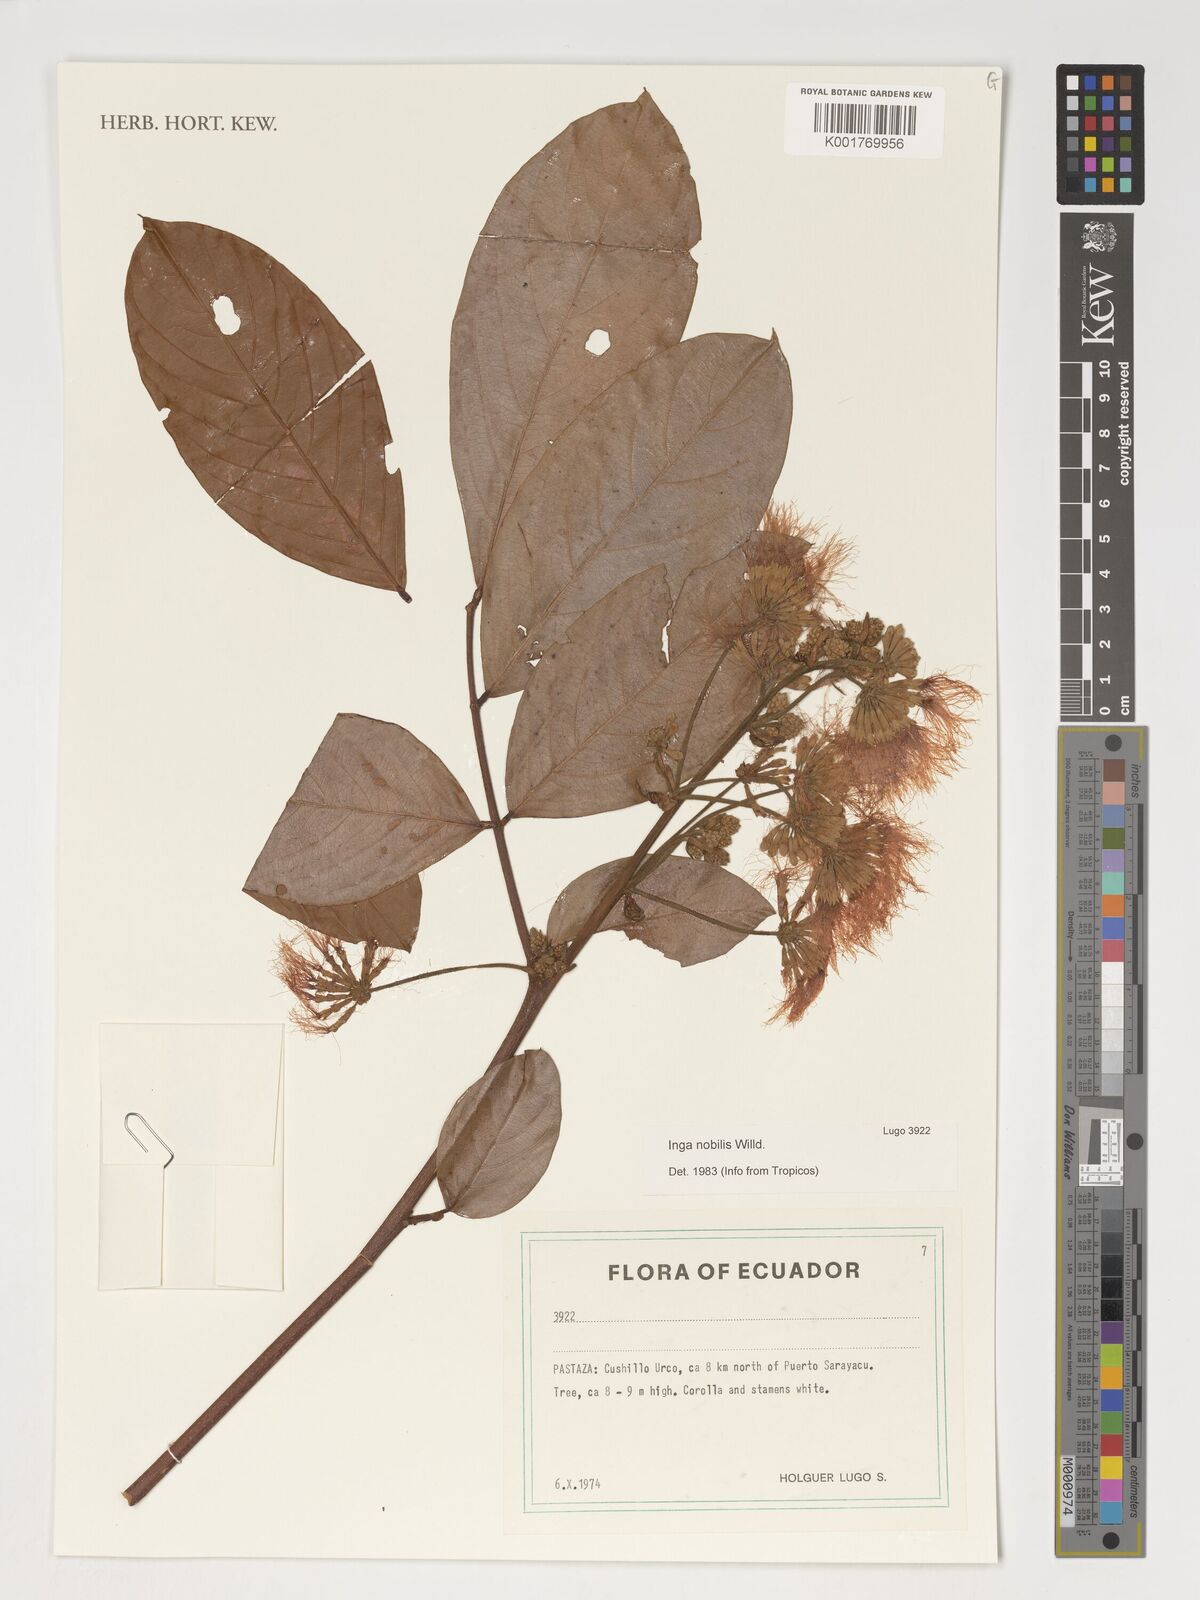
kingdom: Plantae
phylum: Tracheophyta
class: Magnoliopsida
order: Fabales
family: Fabaceae
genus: Inga
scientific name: Inga nobilis
